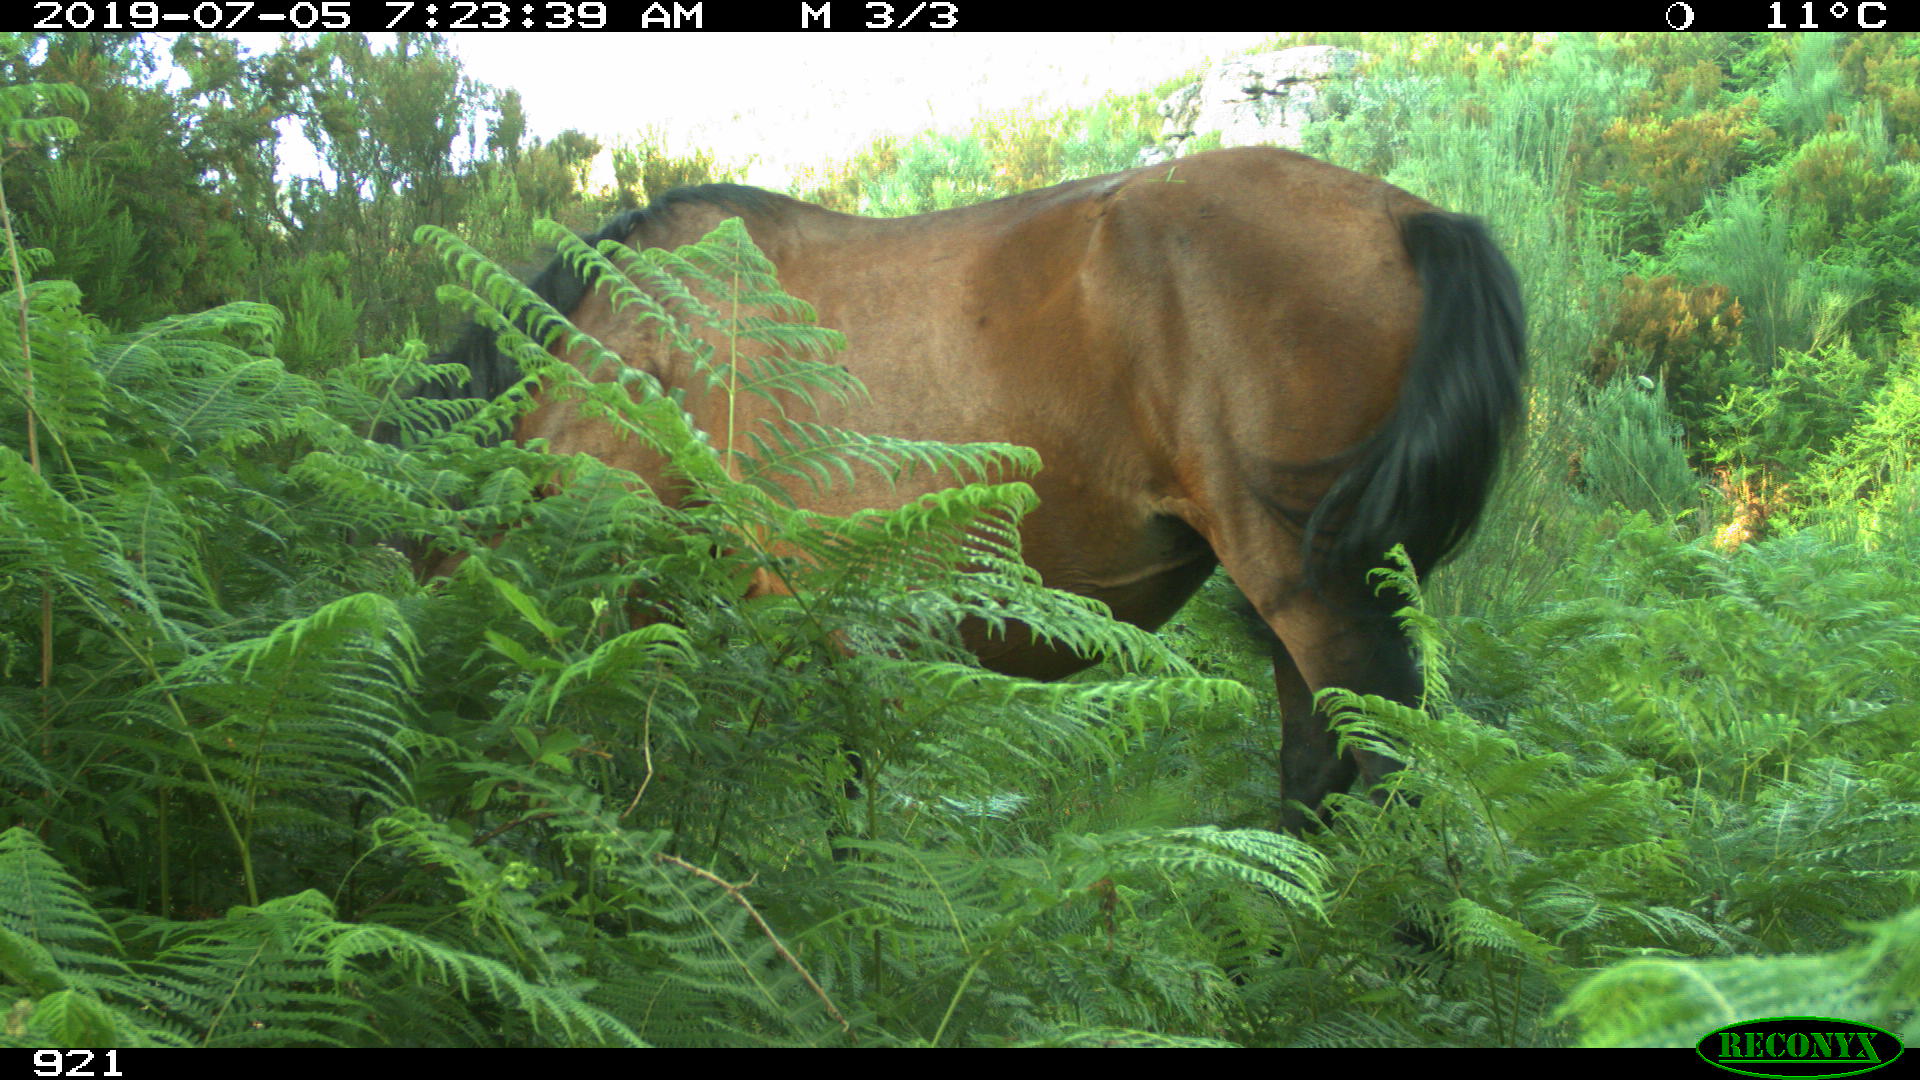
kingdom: Animalia
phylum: Chordata
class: Mammalia
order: Perissodactyla
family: Equidae
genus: Equus
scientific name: Equus caballus
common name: Horse
